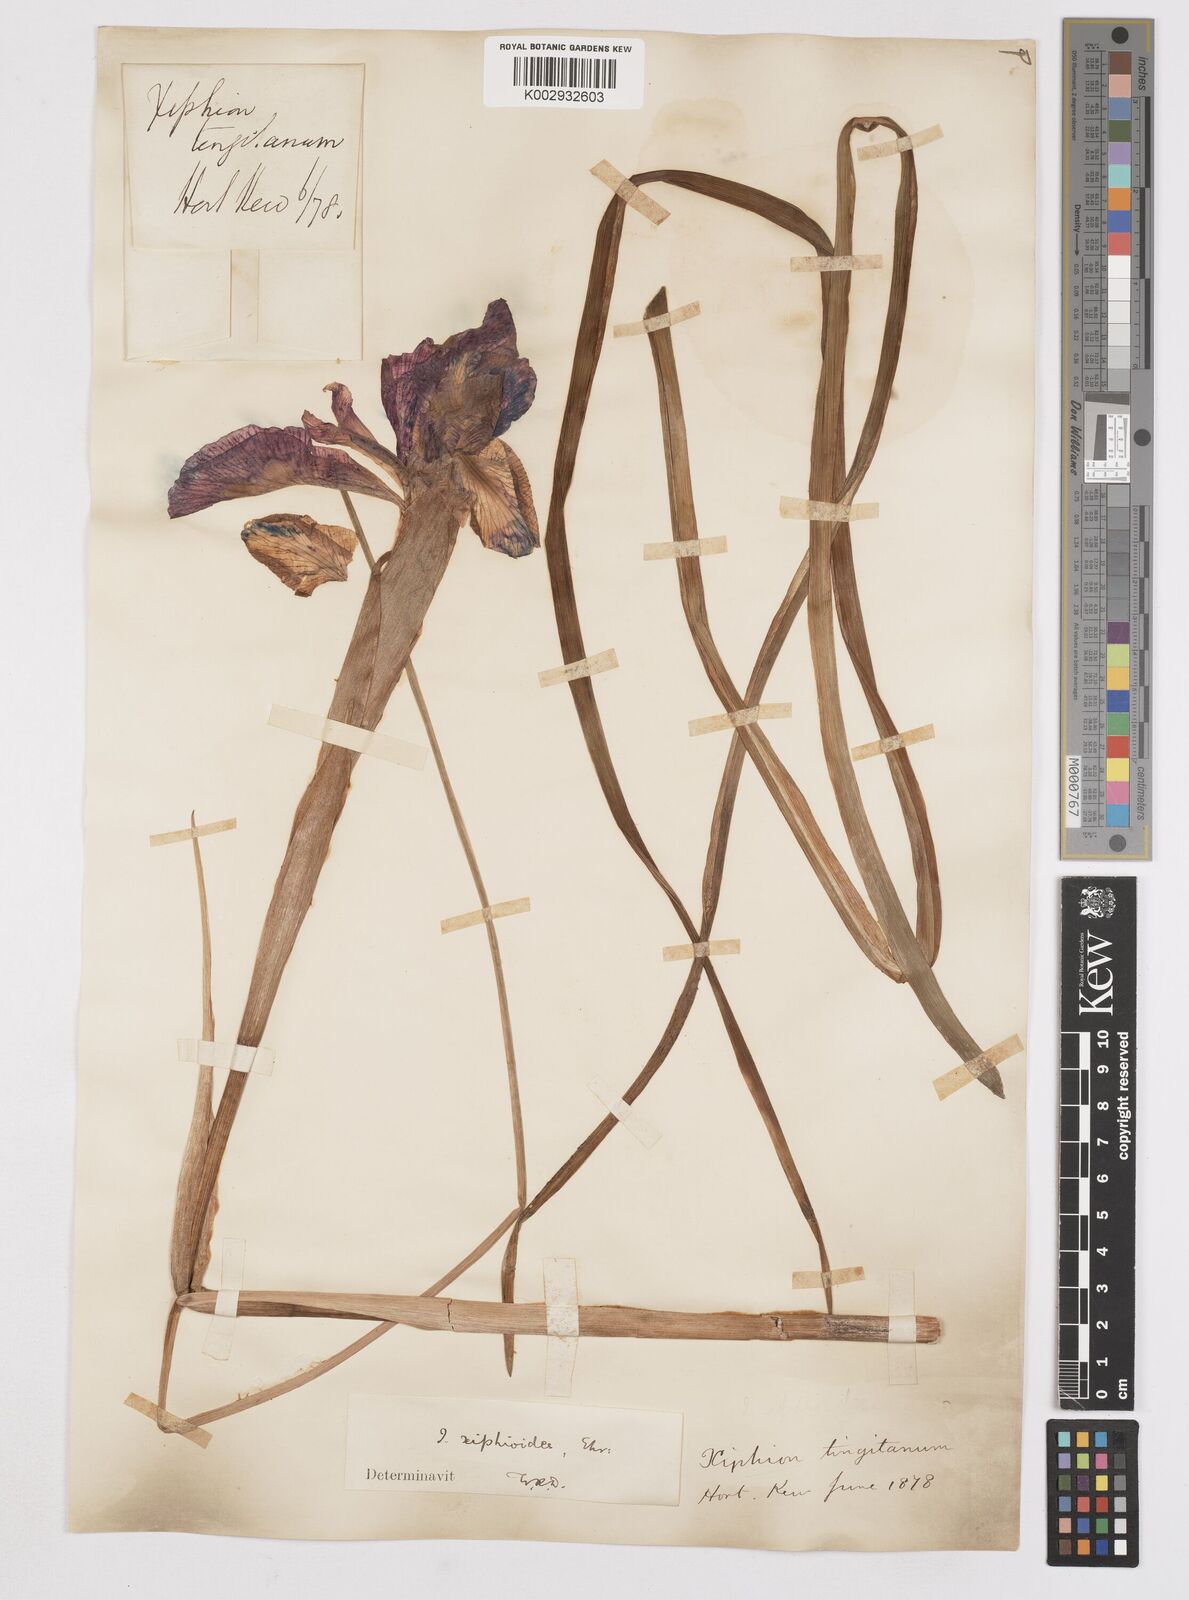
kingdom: Plantae
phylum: Tracheophyta
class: Liliopsida
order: Asparagales
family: Iridaceae
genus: Iris
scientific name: Iris jacquinii
